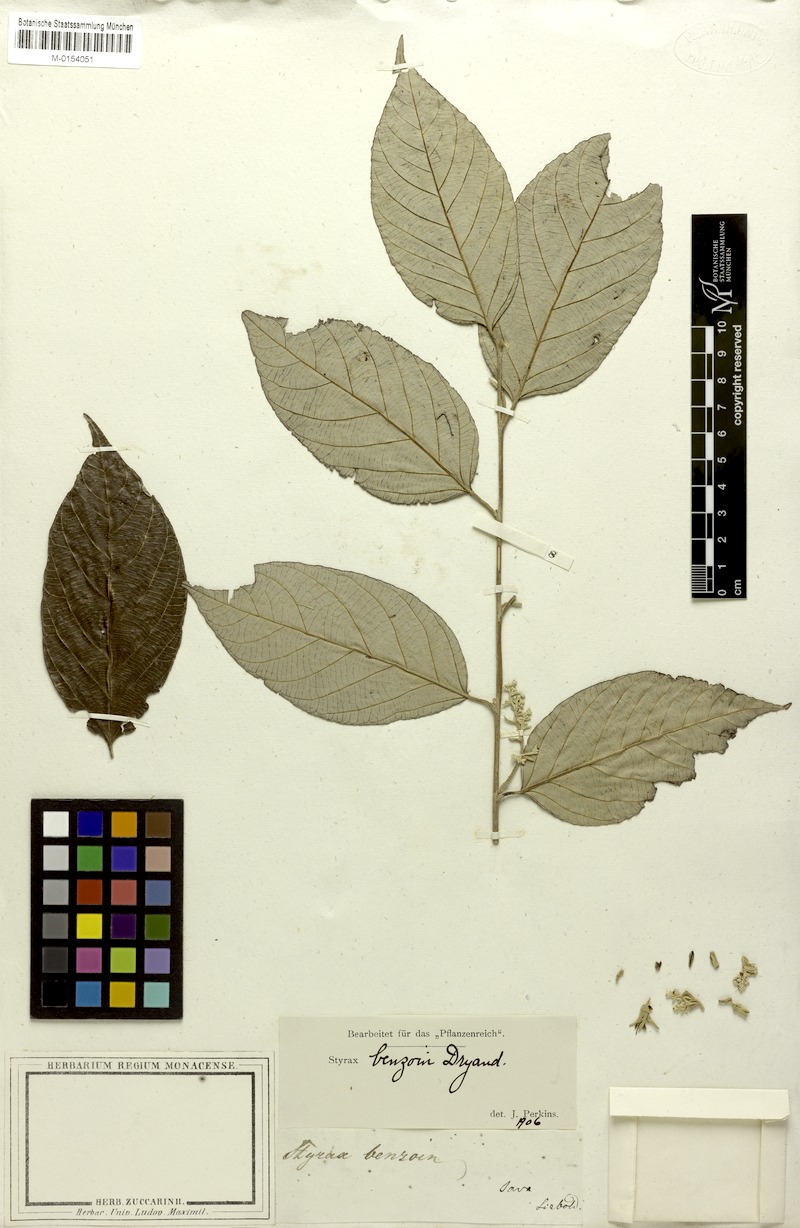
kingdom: Plantae
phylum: Tracheophyta
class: Magnoliopsida
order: Ericales
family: Styracaceae
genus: Styrax
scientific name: Styrax benzoin
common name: Sumatra benzointree
